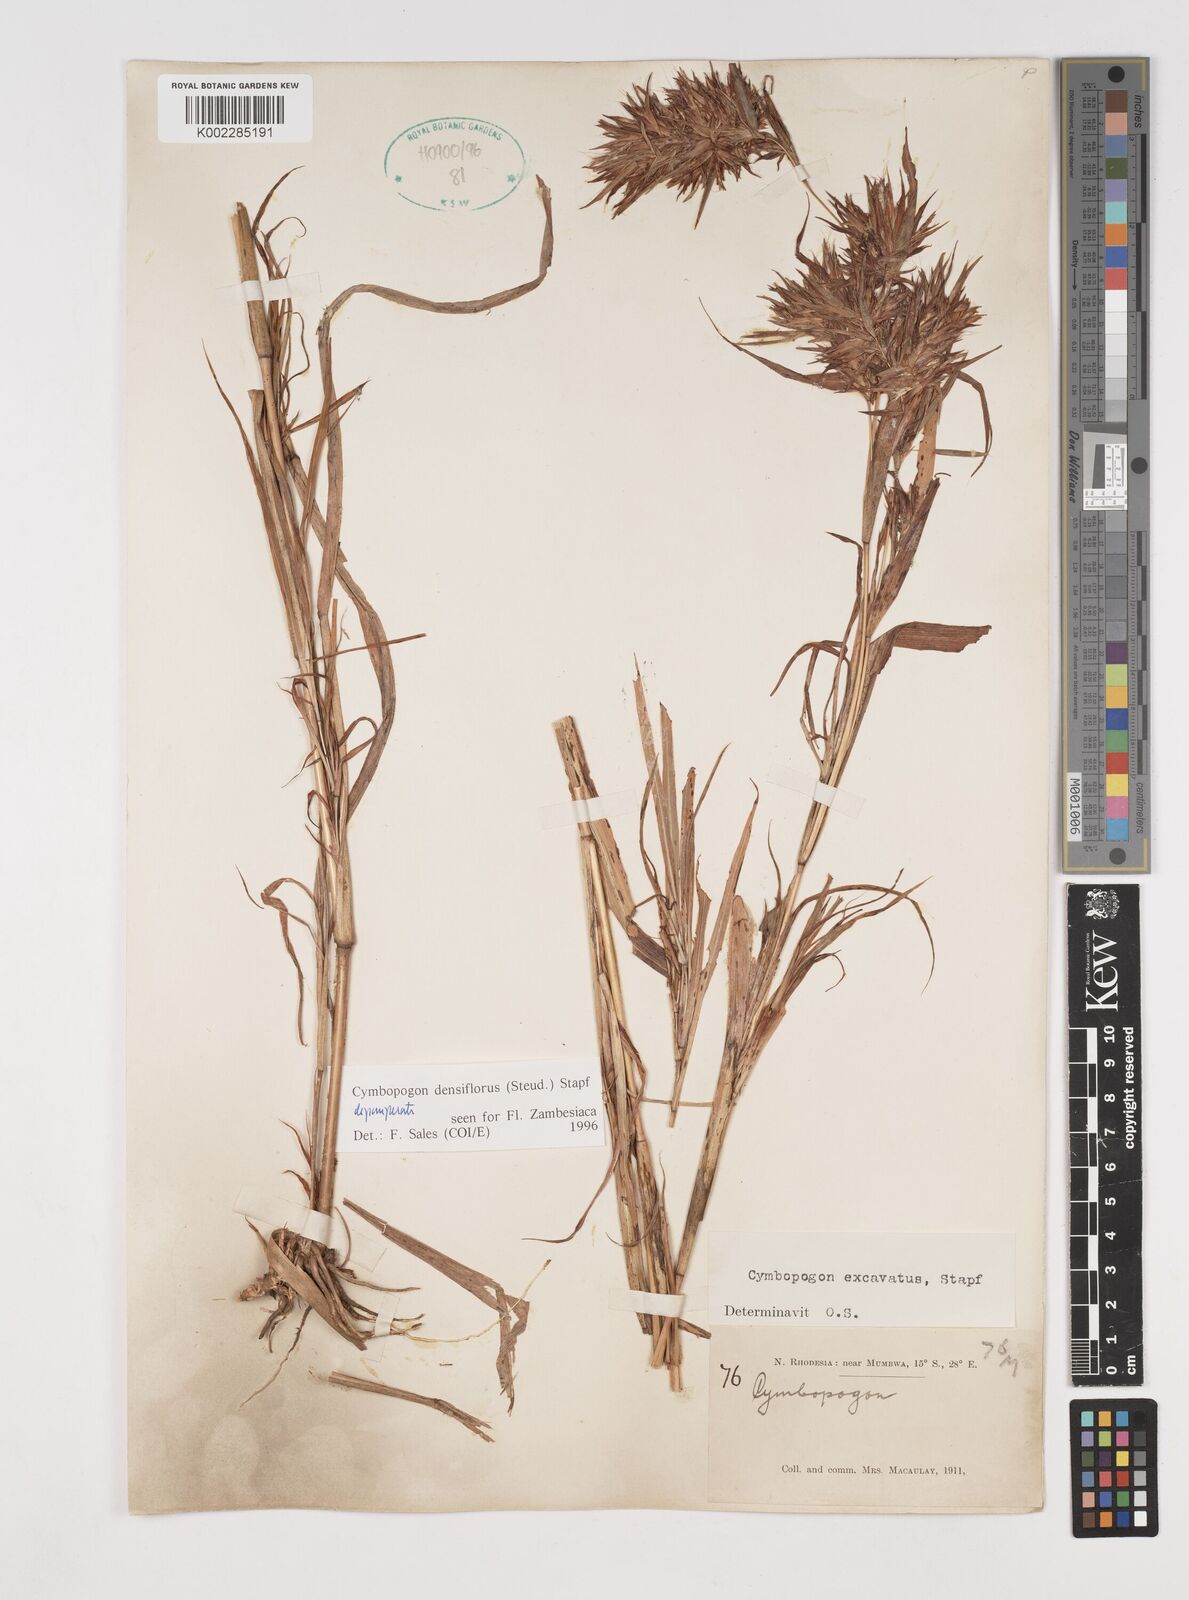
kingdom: Plantae
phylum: Tracheophyta
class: Liliopsida
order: Poales
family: Poaceae
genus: Cymbopogon
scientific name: Cymbopogon densiflorus
